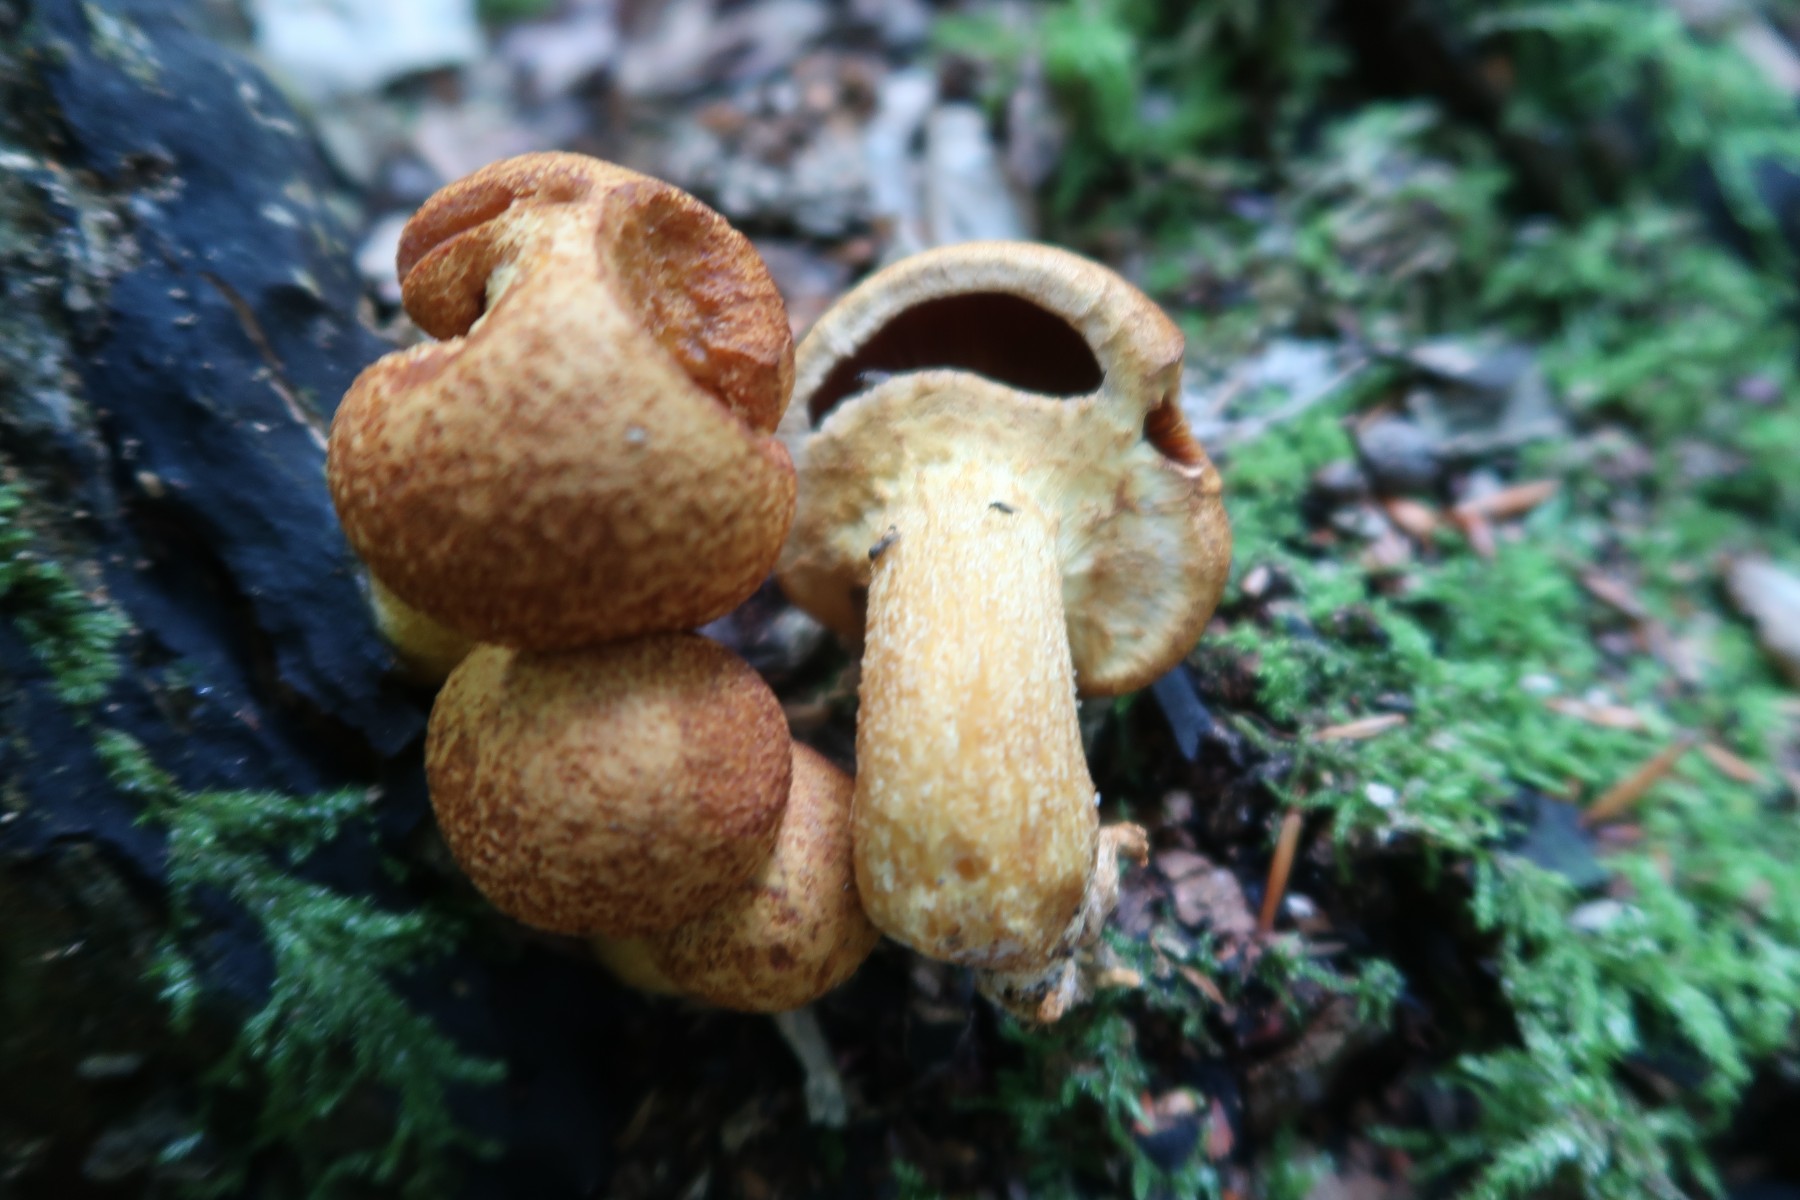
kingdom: Fungi
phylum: Basidiomycota
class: Agaricomycetes
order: Agaricales
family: Hymenogastraceae
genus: Gymnopilus
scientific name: Gymnopilus spectabilis
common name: fibret flammehat
